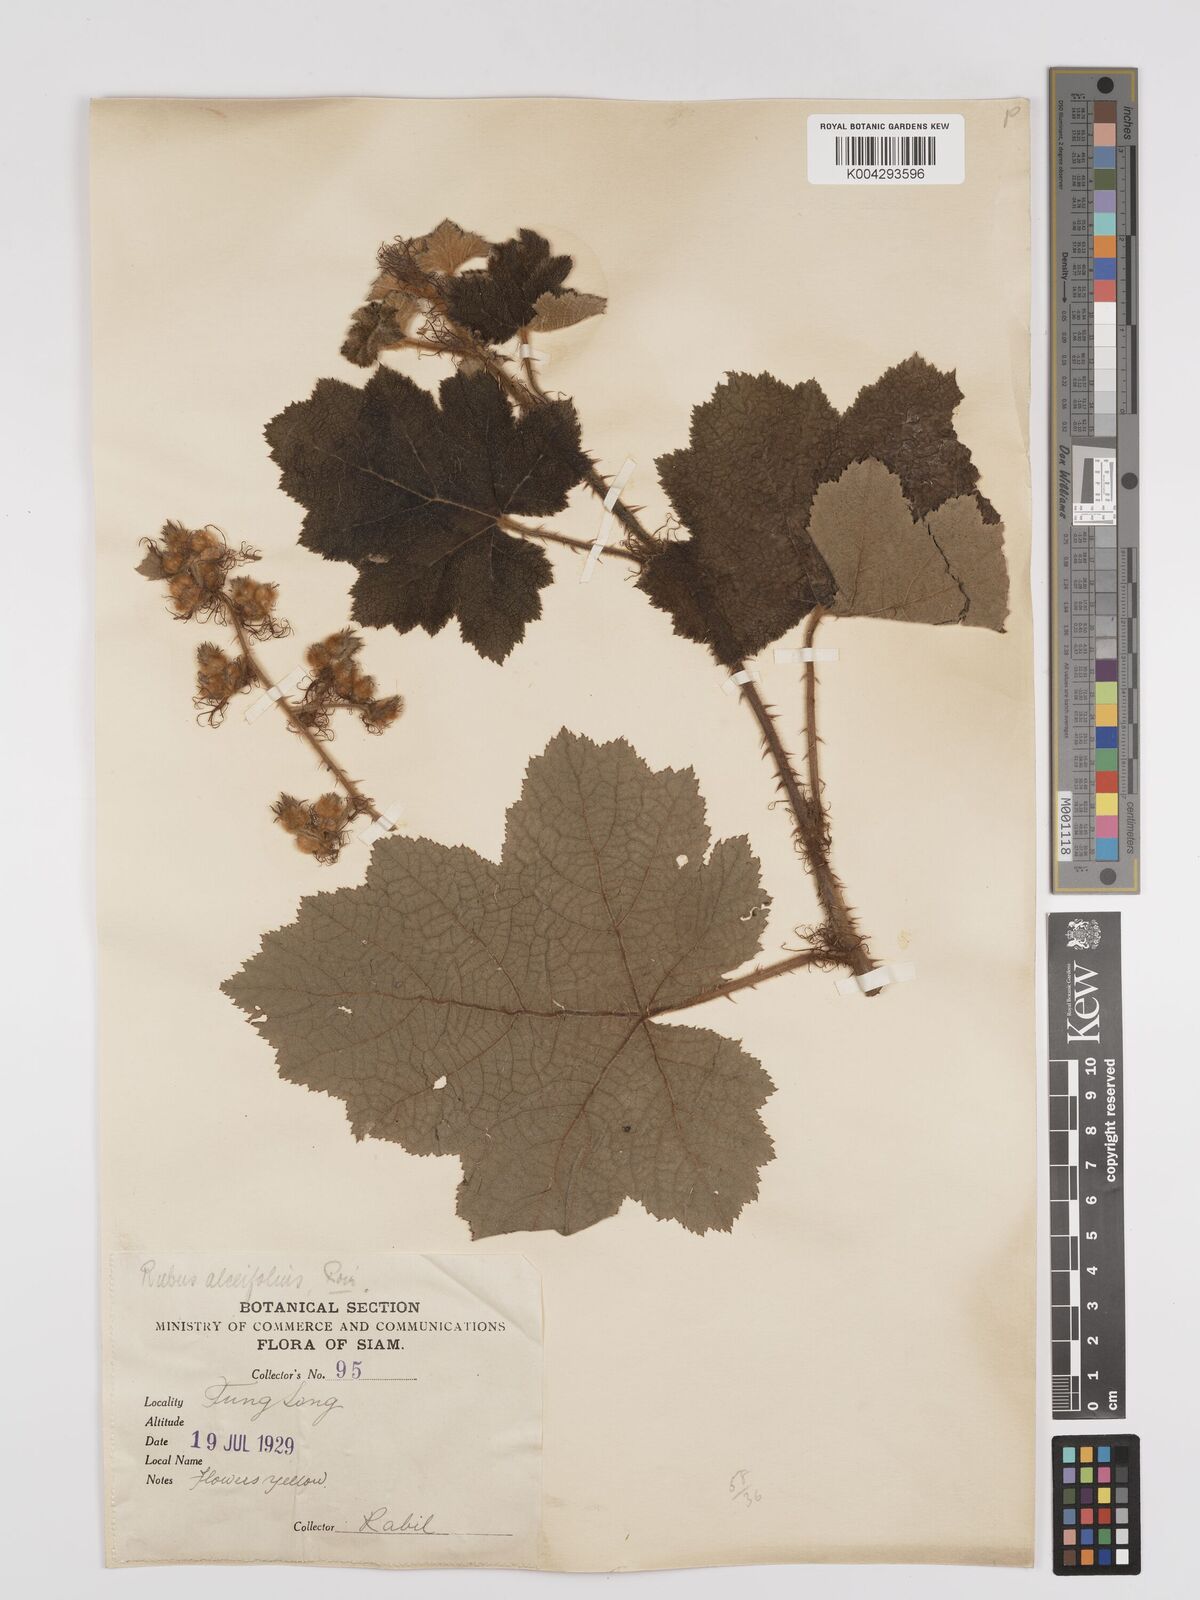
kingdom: Plantae
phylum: Tracheophyta
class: Magnoliopsida
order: Rosales
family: Rosaceae
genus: Rubus
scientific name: Rubus alceifolius
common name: Giant bramble
